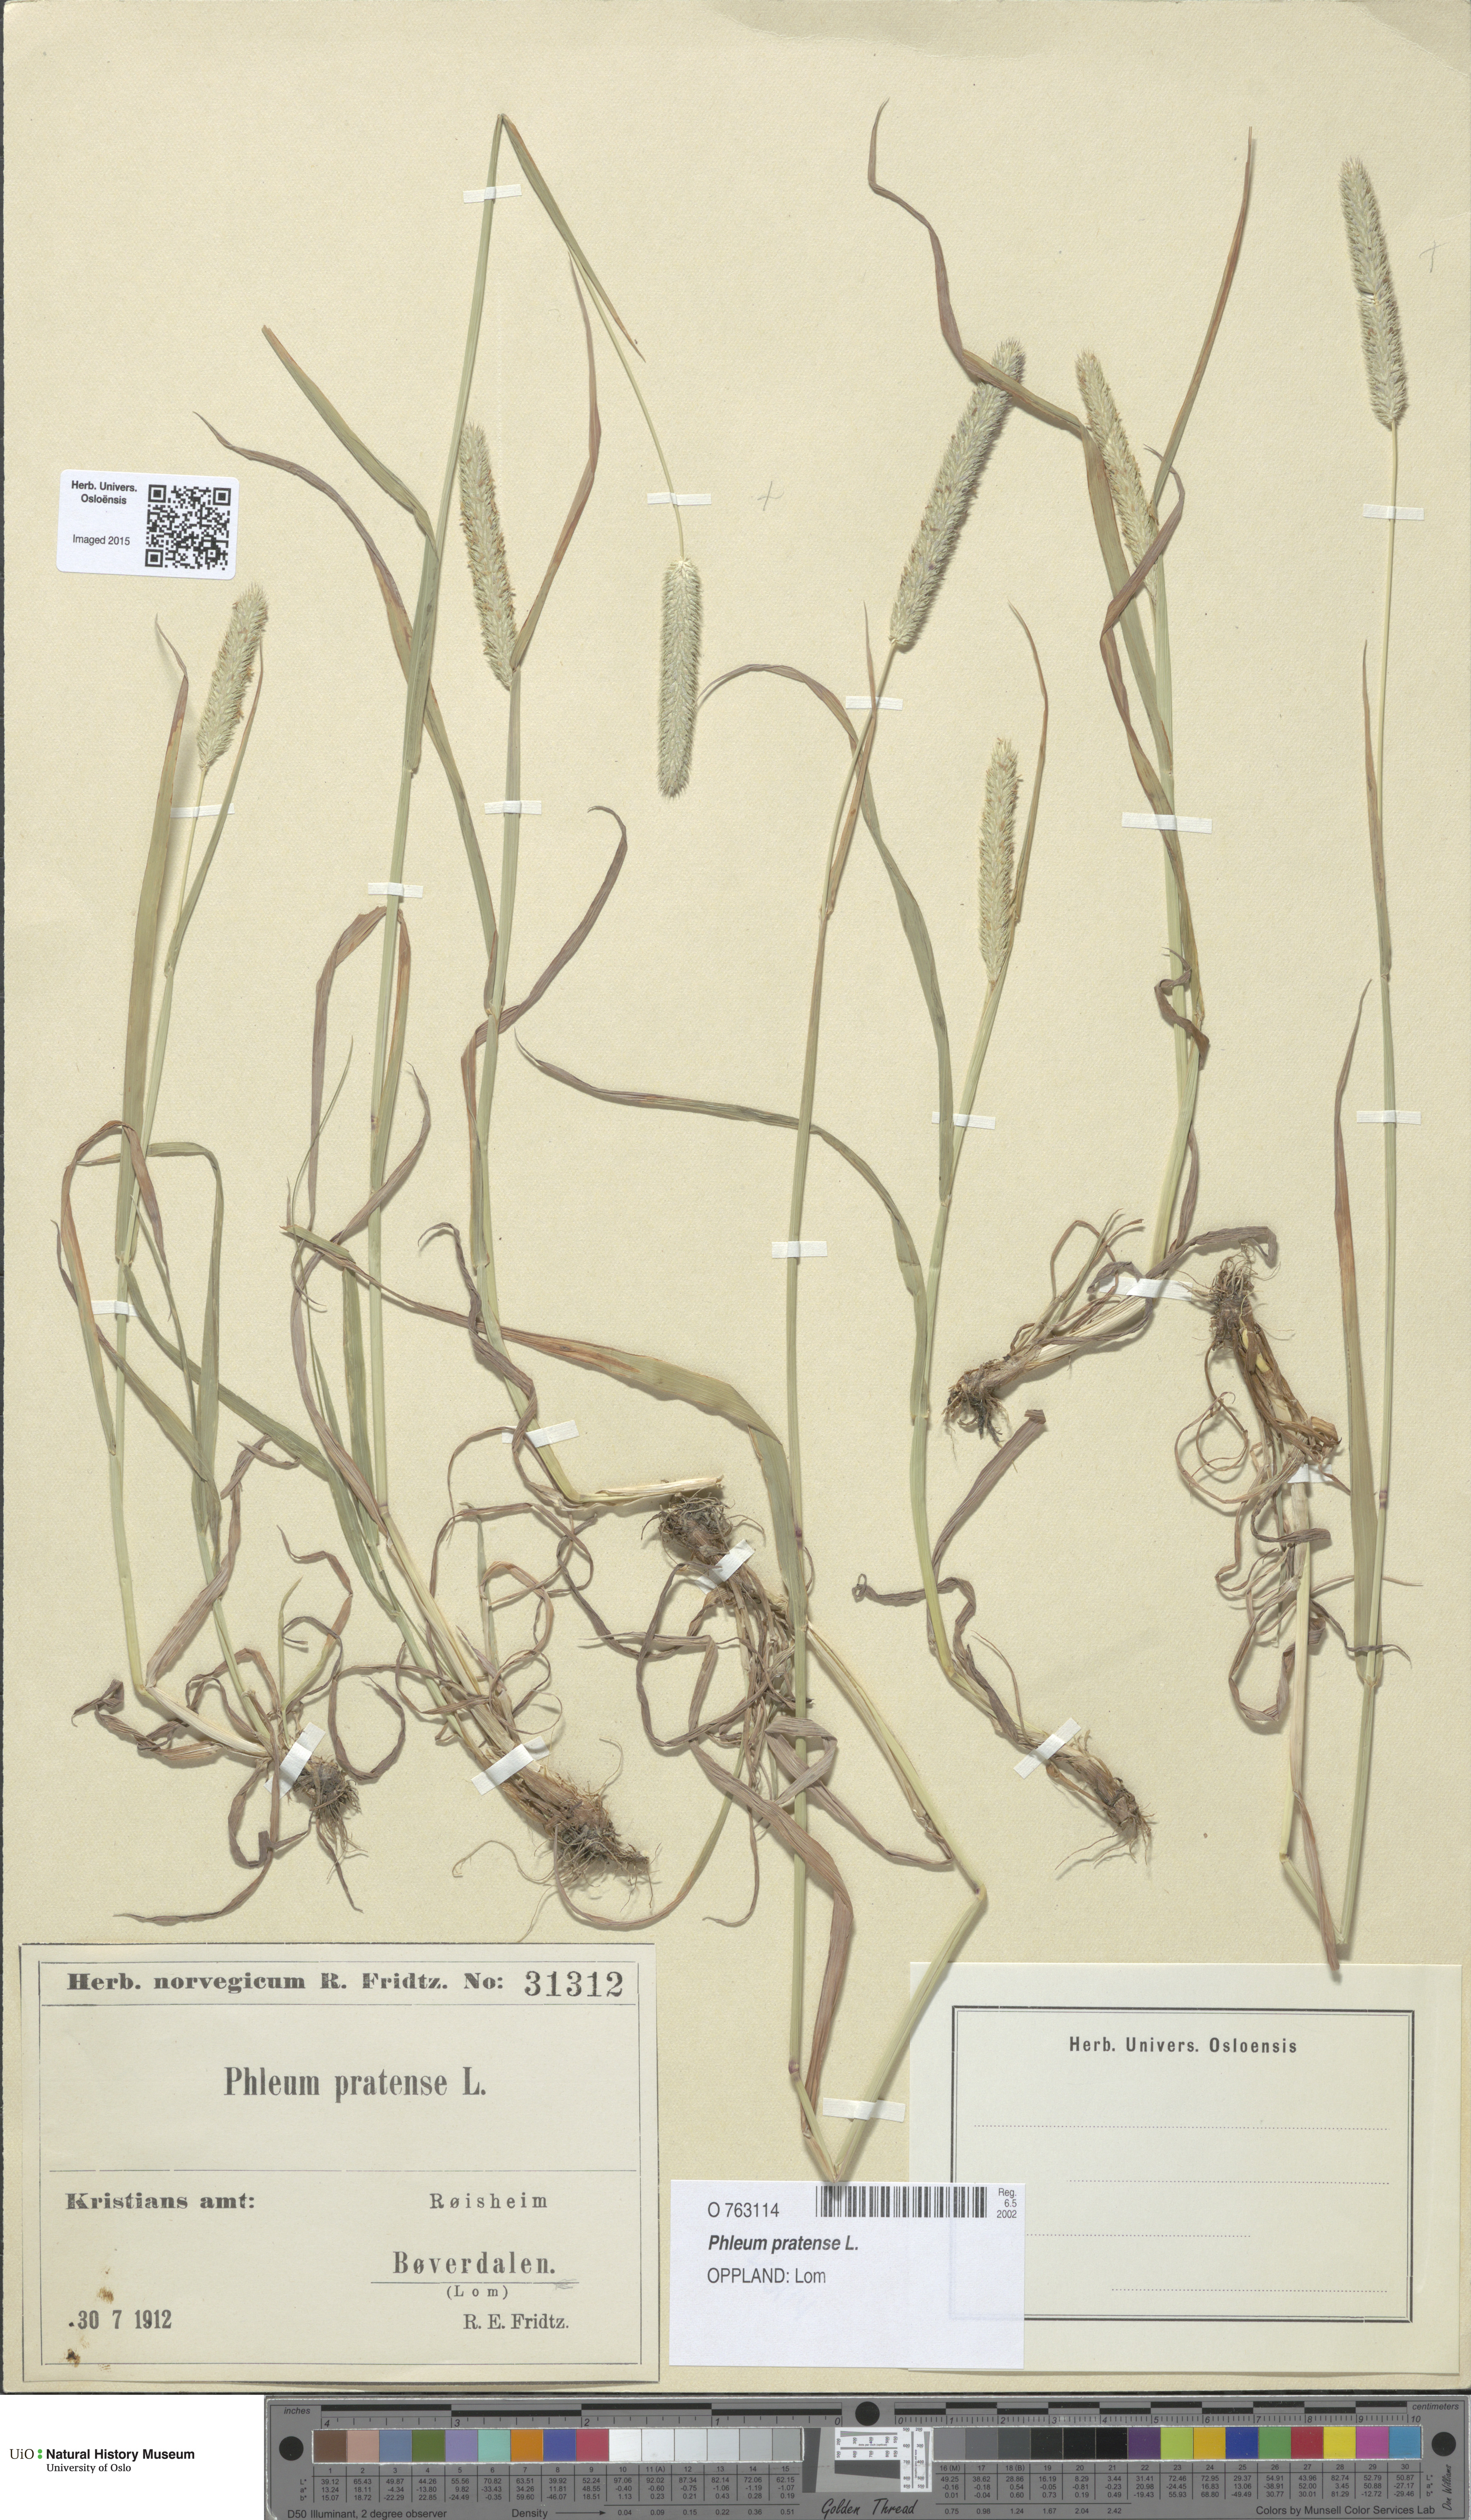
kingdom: Plantae
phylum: Tracheophyta
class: Liliopsida
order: Poales
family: Poaceae
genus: Phleum
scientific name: Phleum pratense
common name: Timothy grass
